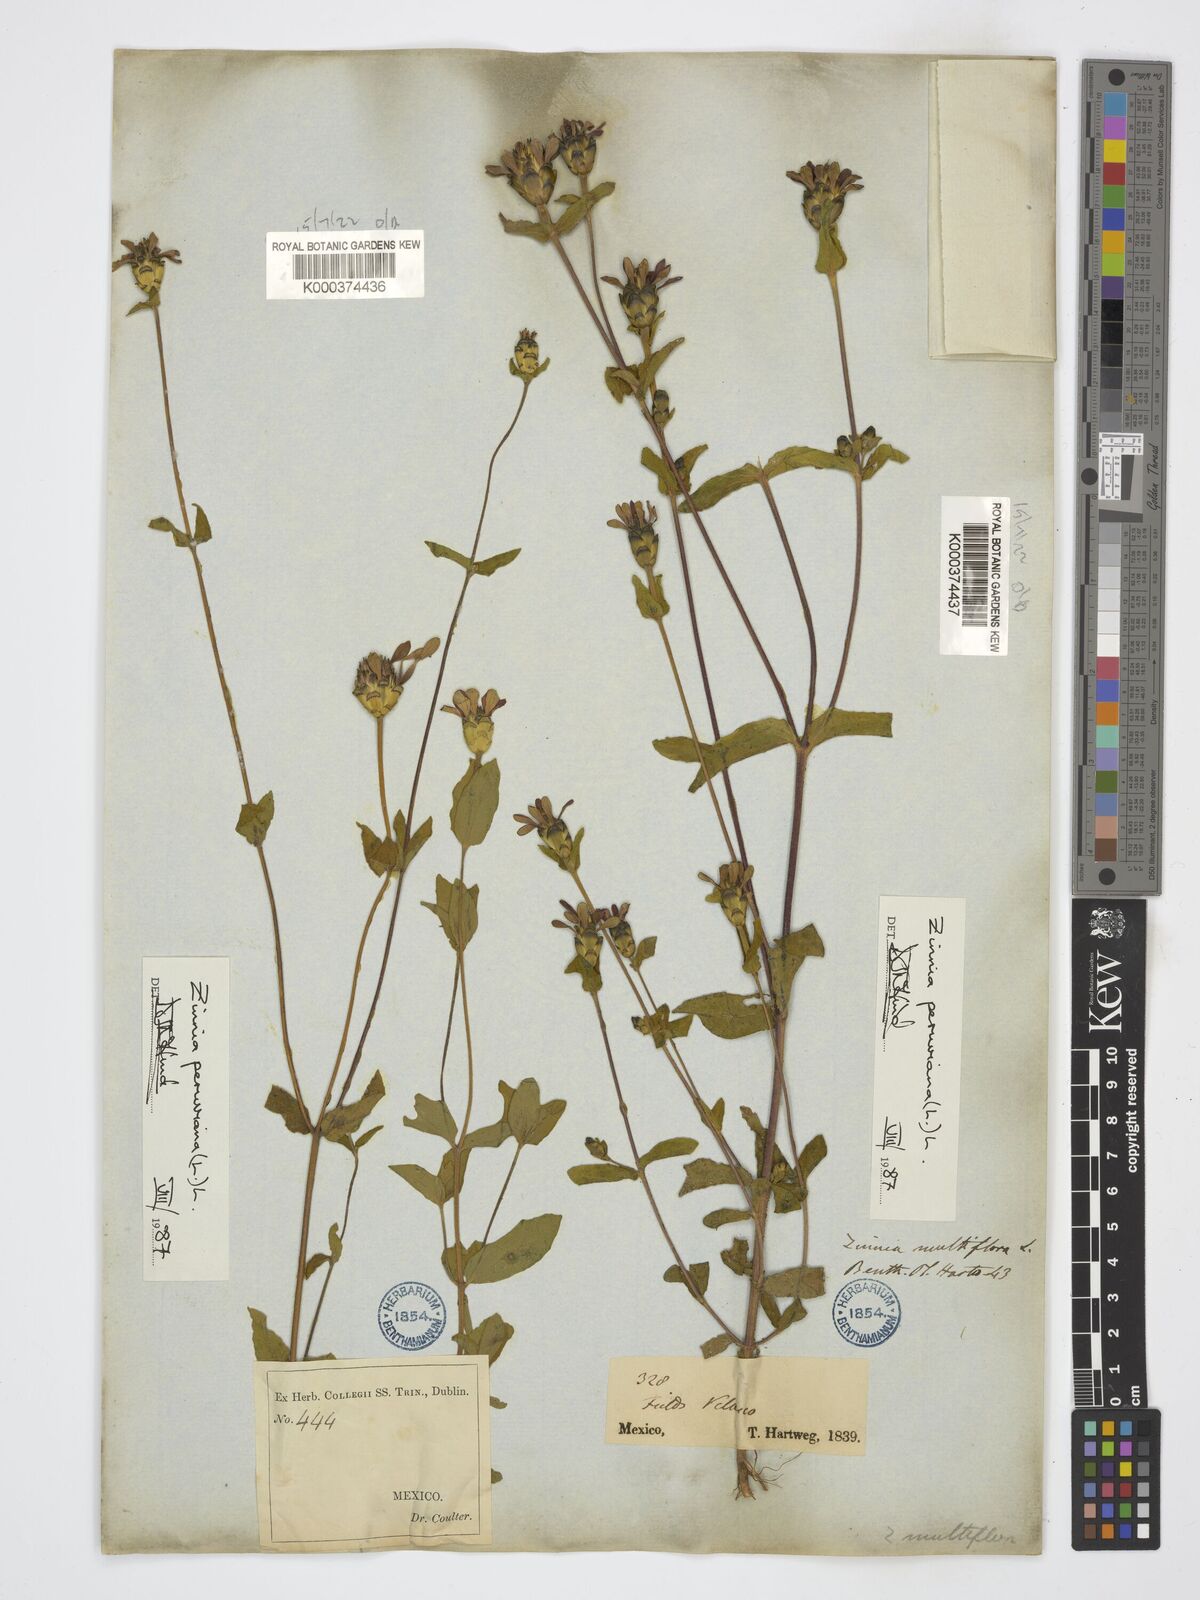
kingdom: Plantae
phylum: Tracheophyta
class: Magnoliopsida
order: Asterales
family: Asteraceae
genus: Zinnia
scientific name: Zinnia peruviana
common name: Peruvian zinnia
